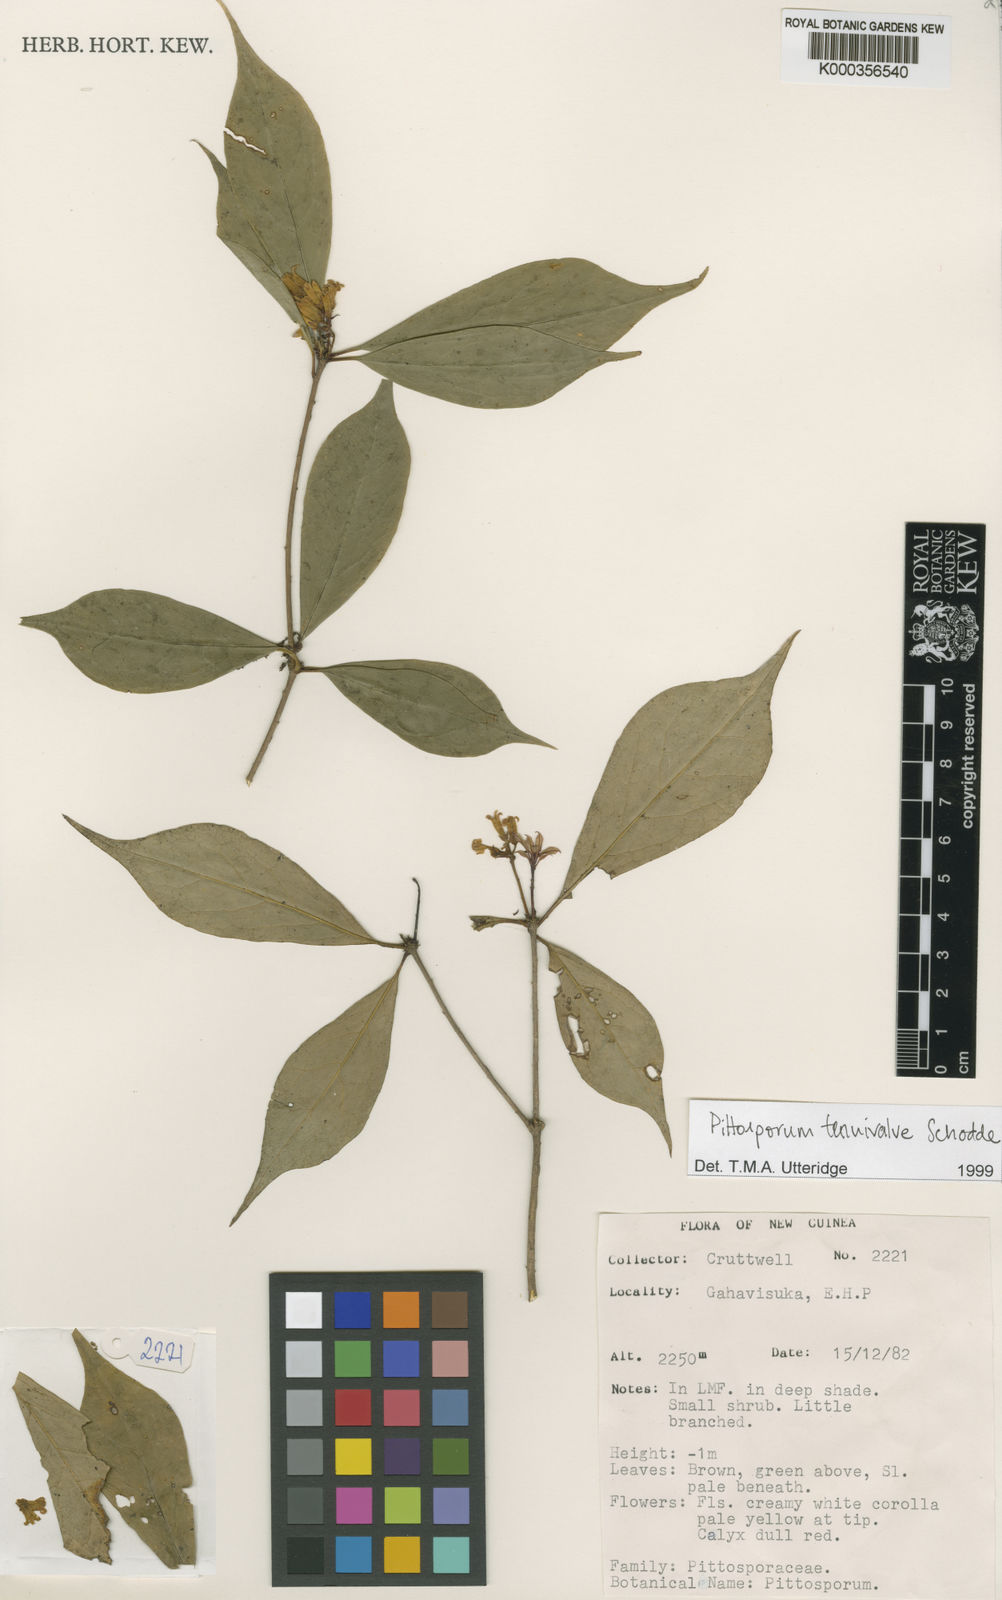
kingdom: Plantae
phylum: Tracheophyta
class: Magnoliopsida
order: Apiales
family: Pittosporaceae
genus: Pittosporum
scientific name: Pittosporum tenuivalve
